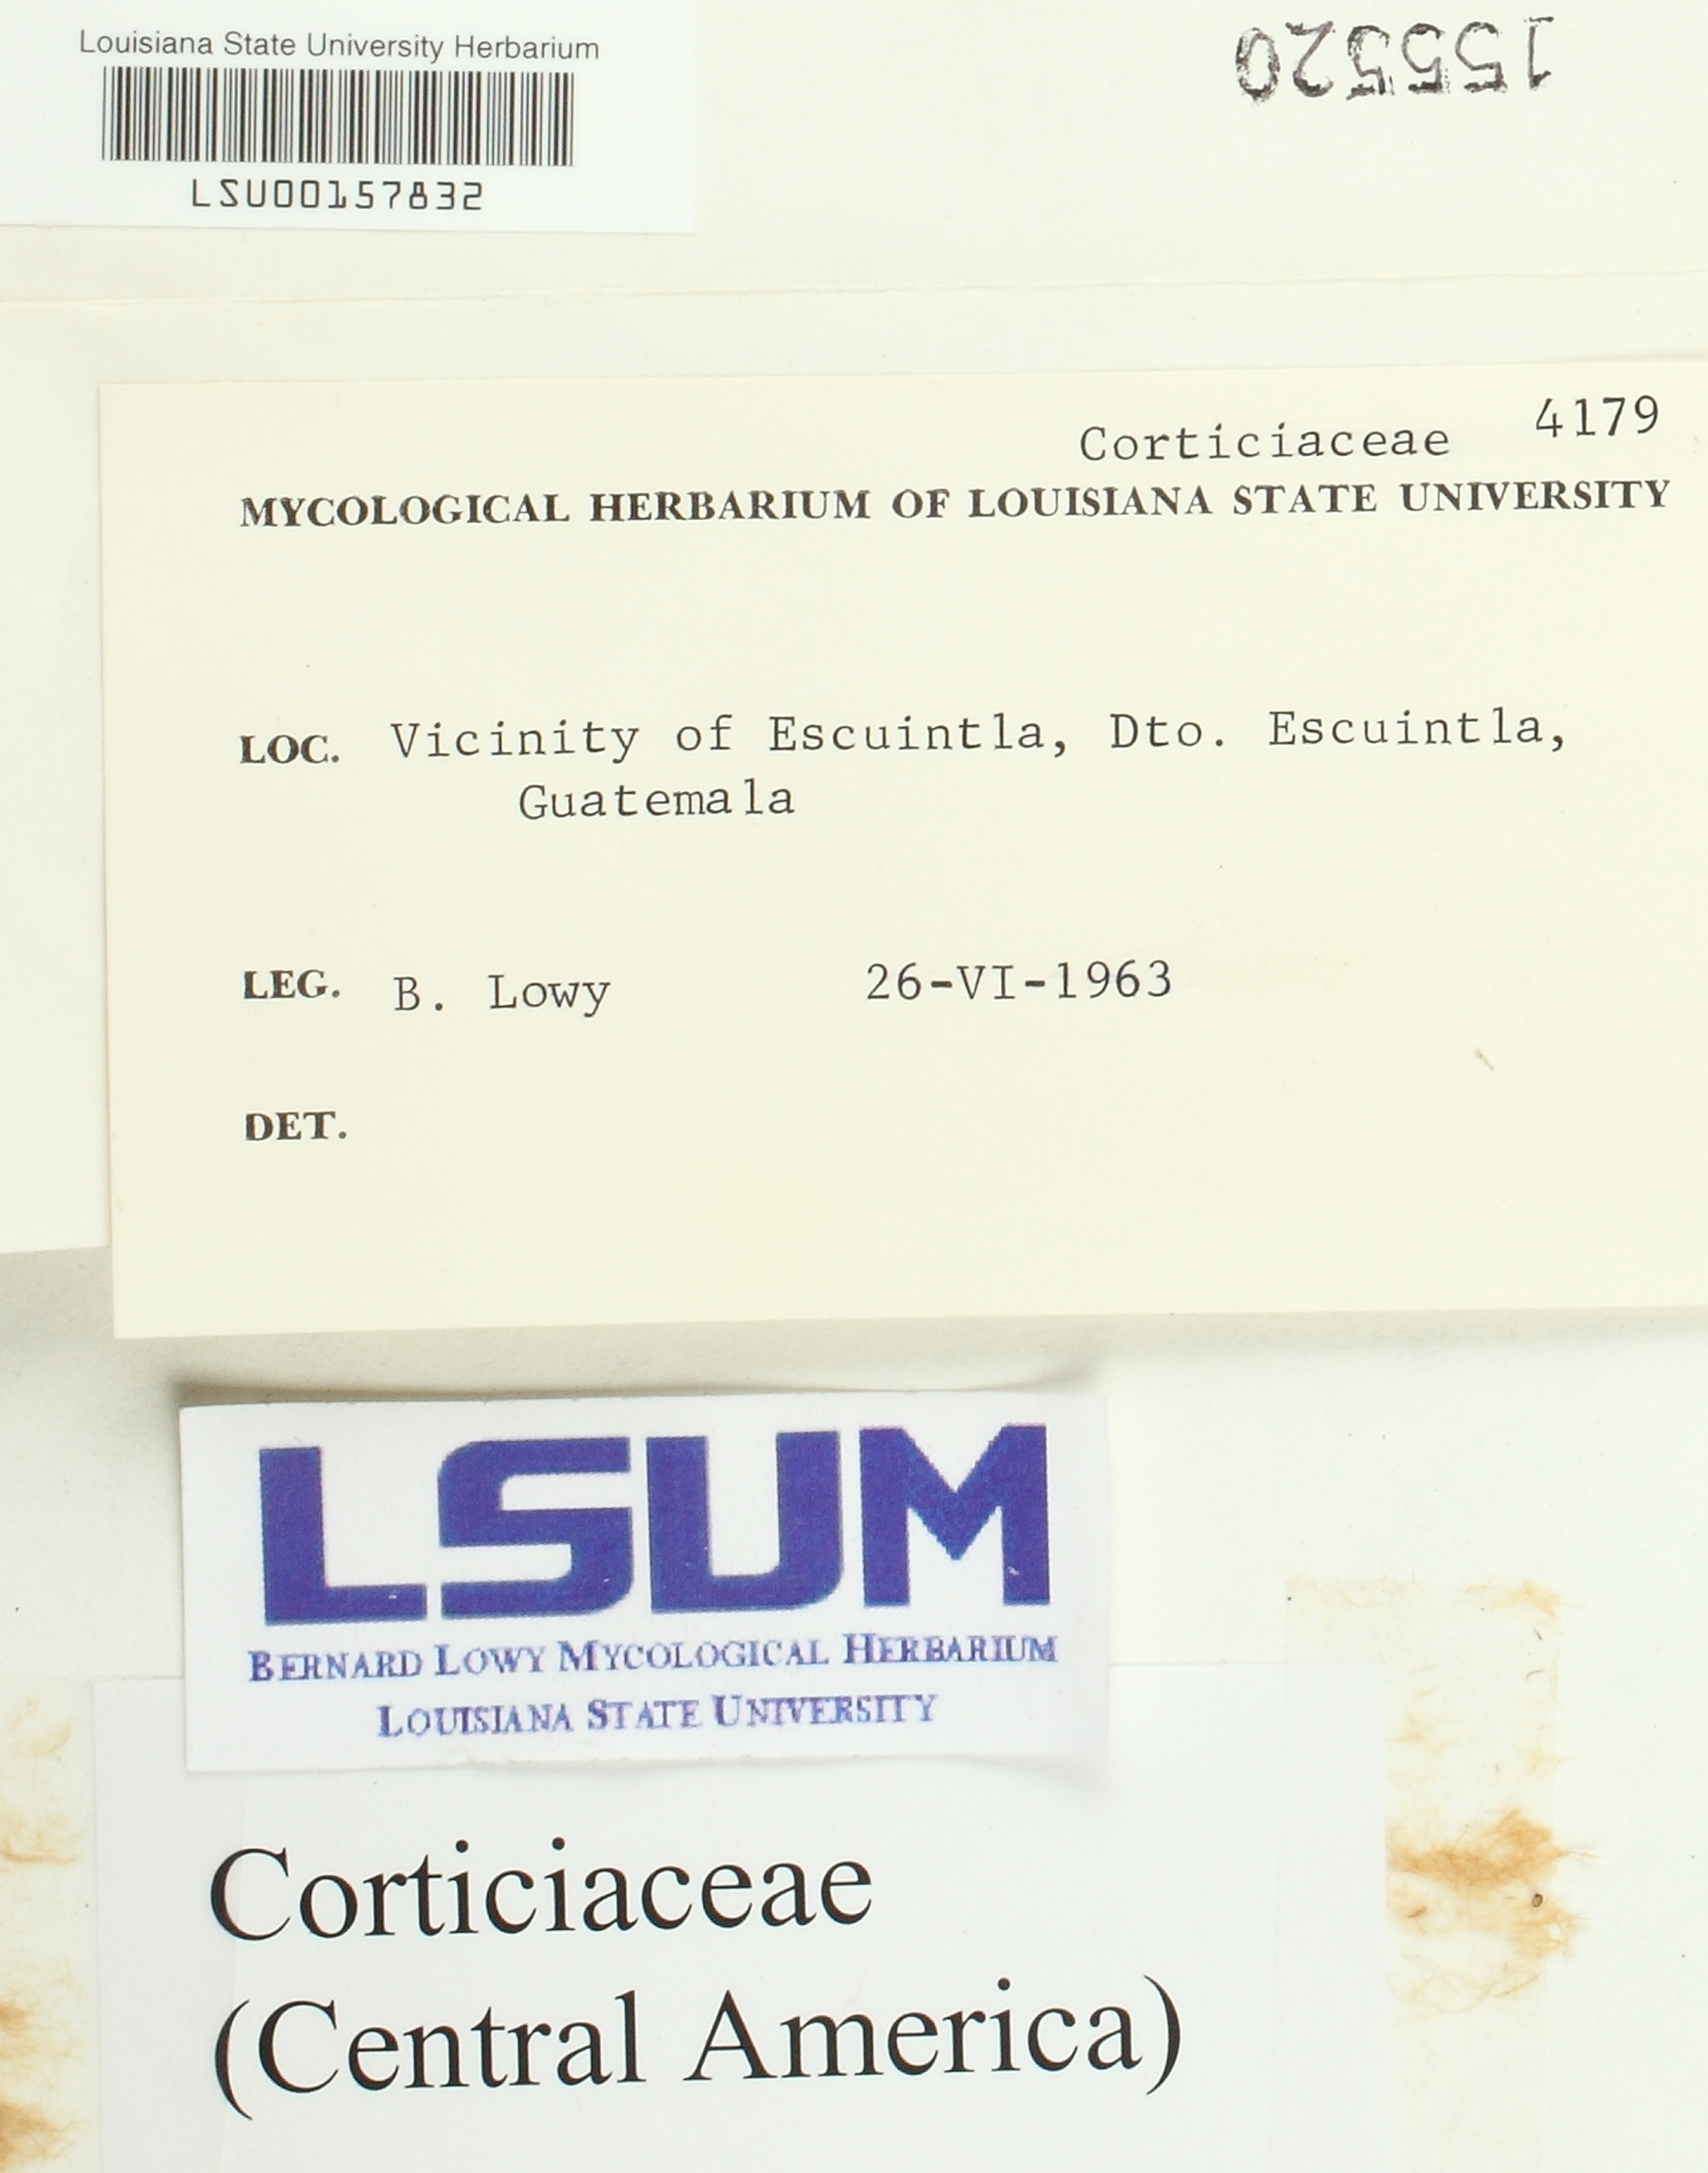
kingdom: Fungi
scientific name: Fungi
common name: Fungi
